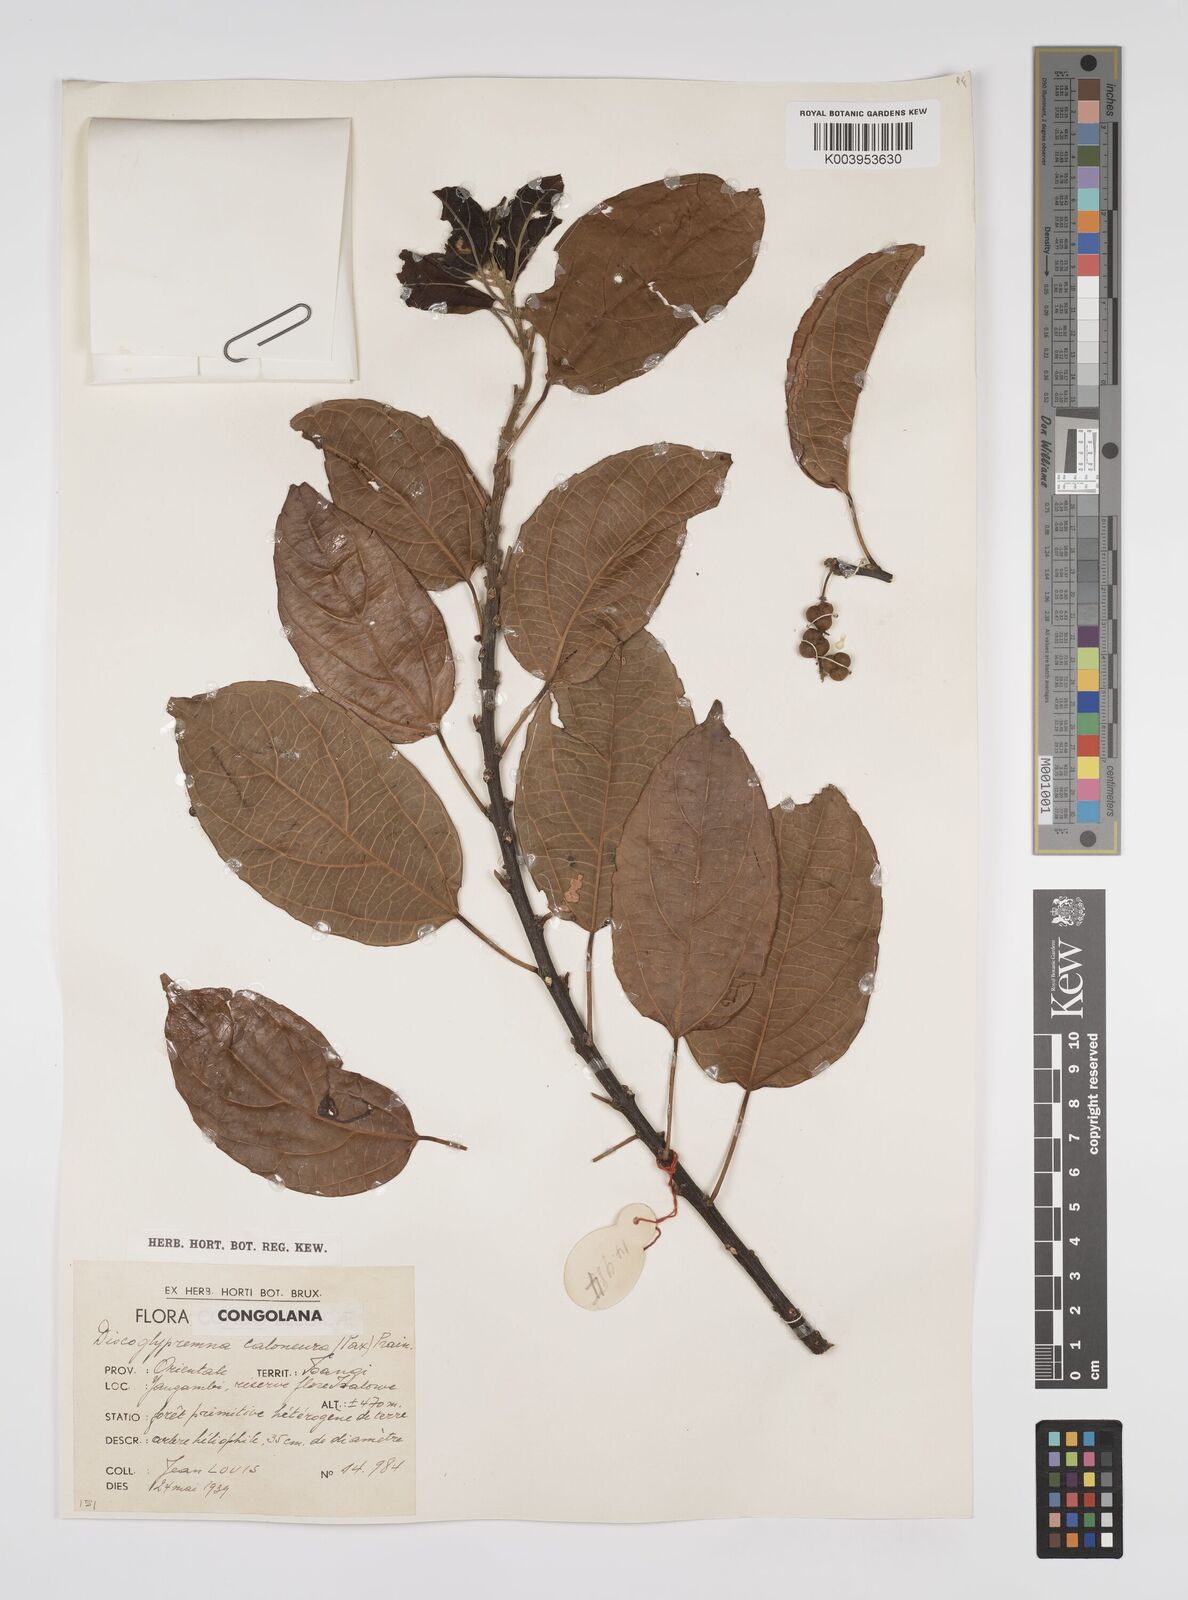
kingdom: Plantae
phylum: Tracheophyta
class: Magnoliopsida
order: Malpighiales
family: Euphorbiaceae
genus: Discoglypremna
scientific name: Discoglypremna caloneura
